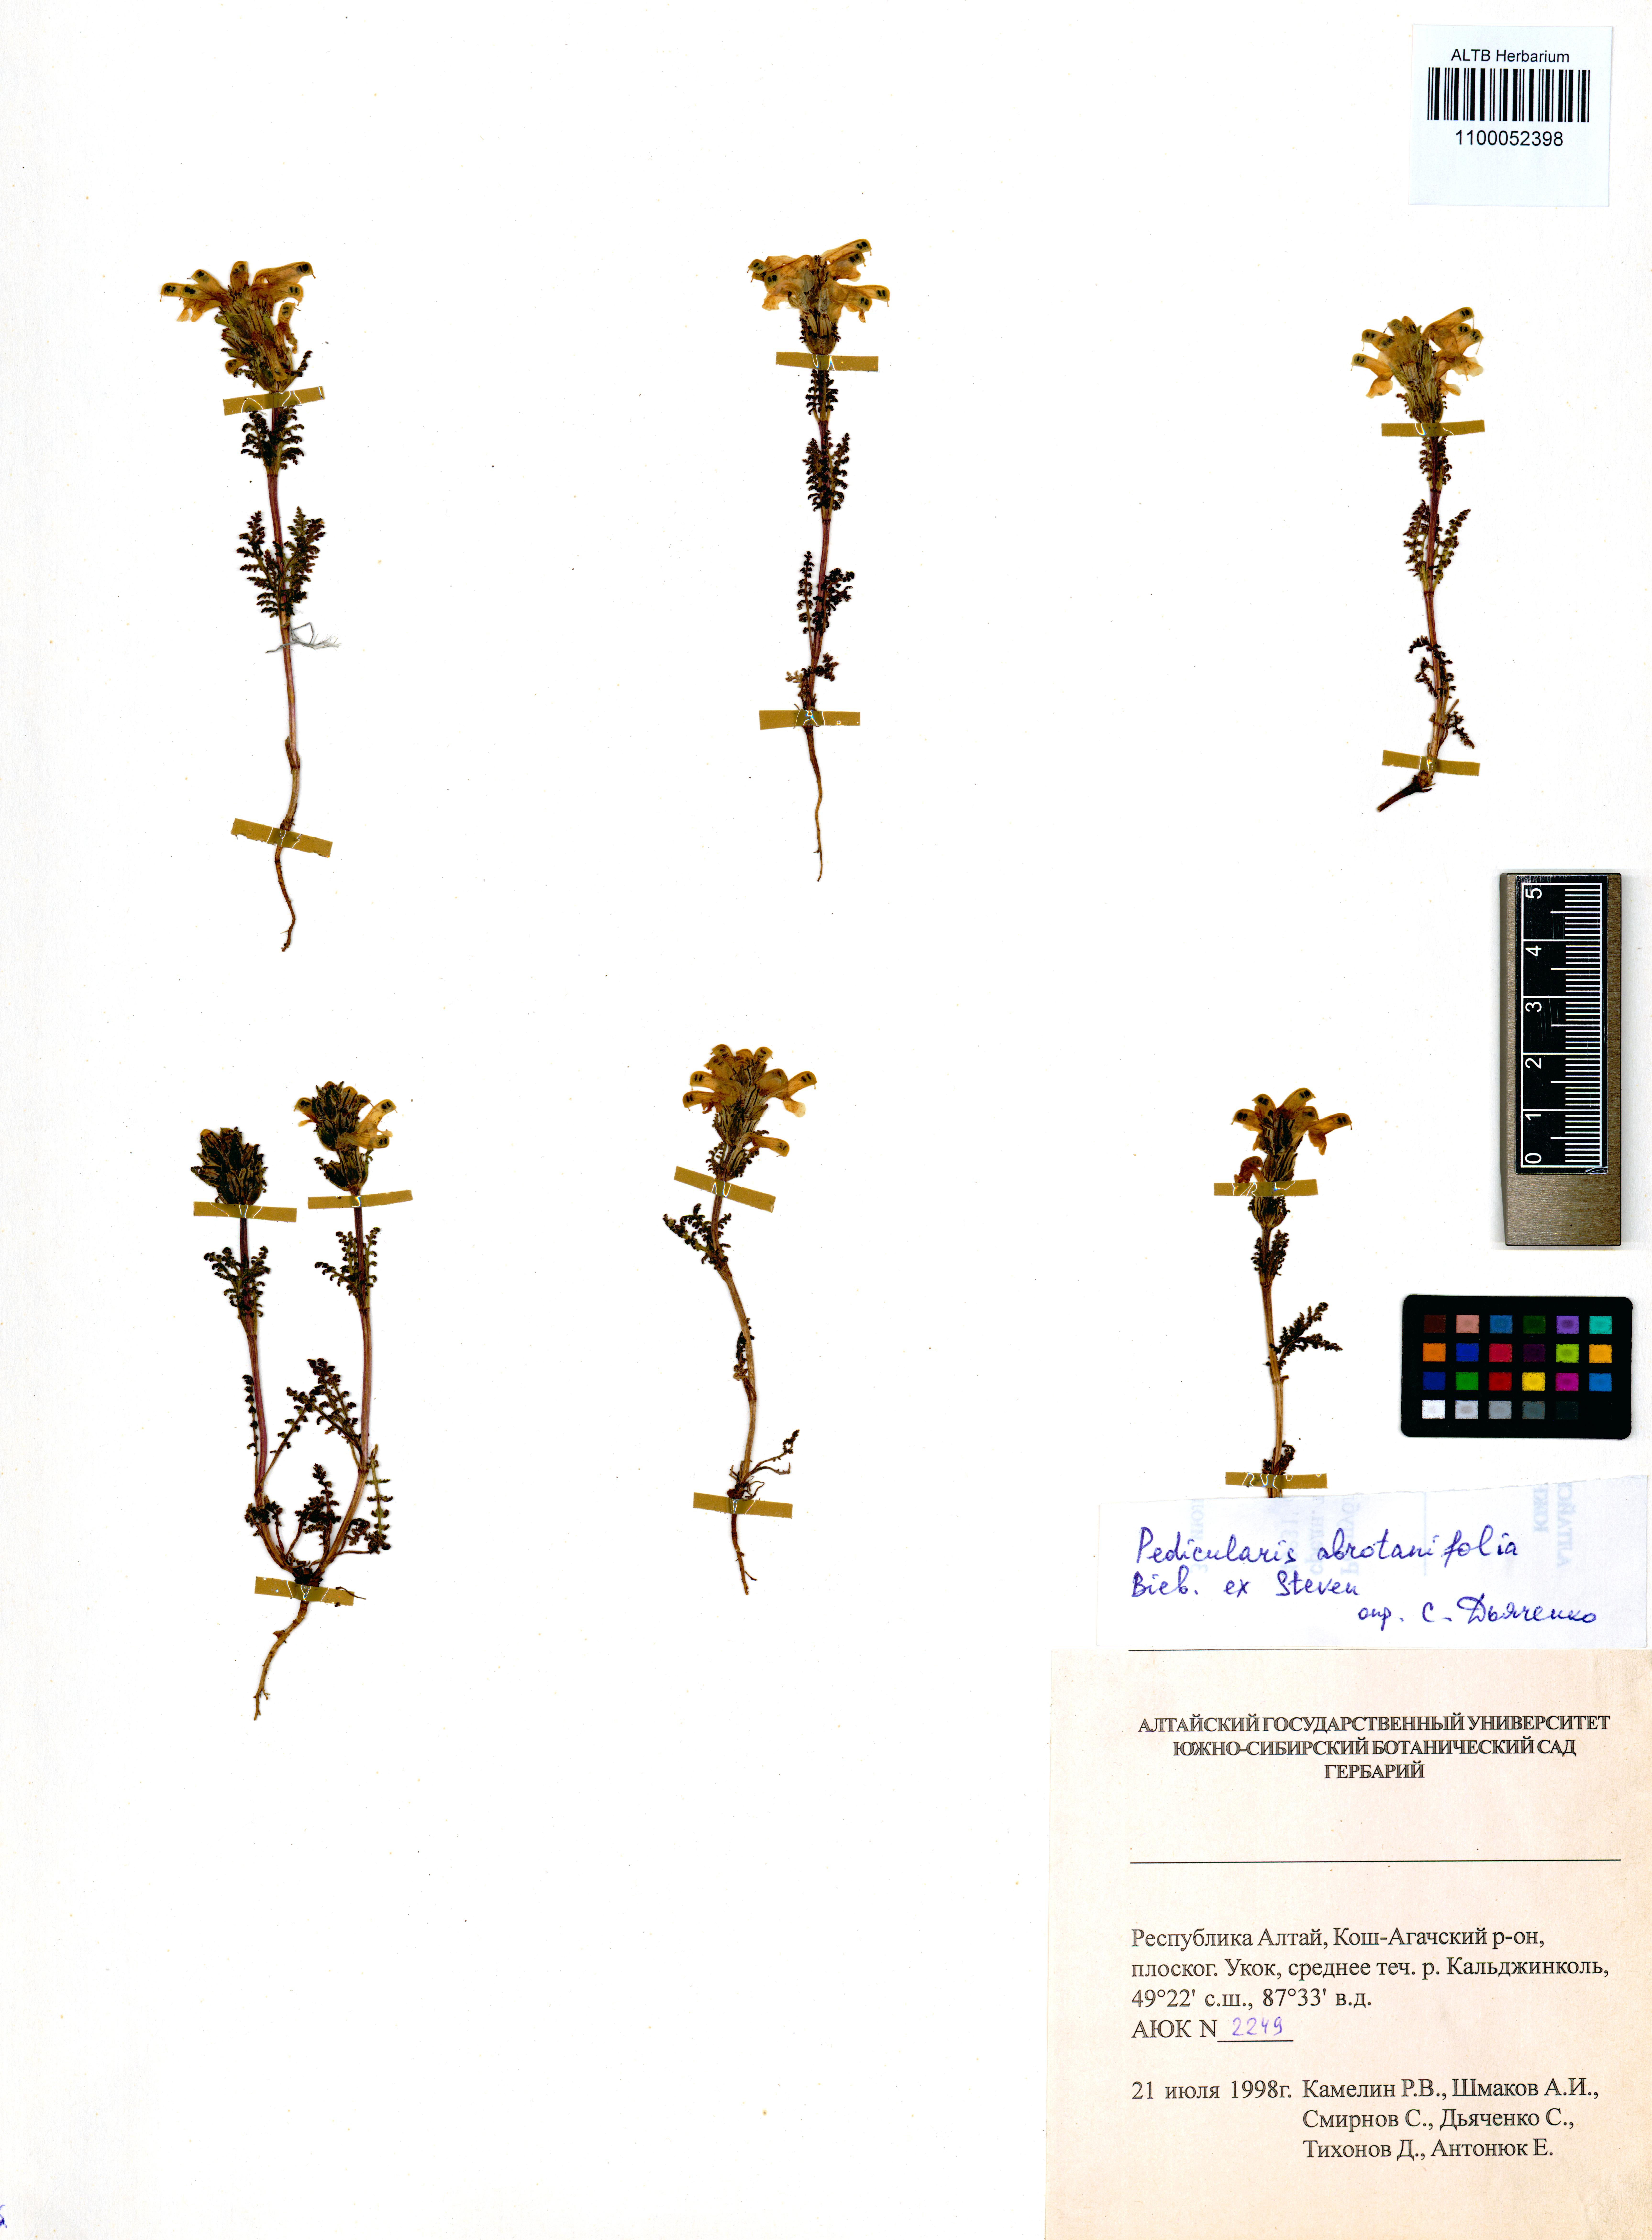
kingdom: Plantae
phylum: Tracheophyta
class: Magnoliopsida
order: Lamiales
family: Orobanchaceae
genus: Pedicularis
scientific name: Pedicularis abrotanifolia
